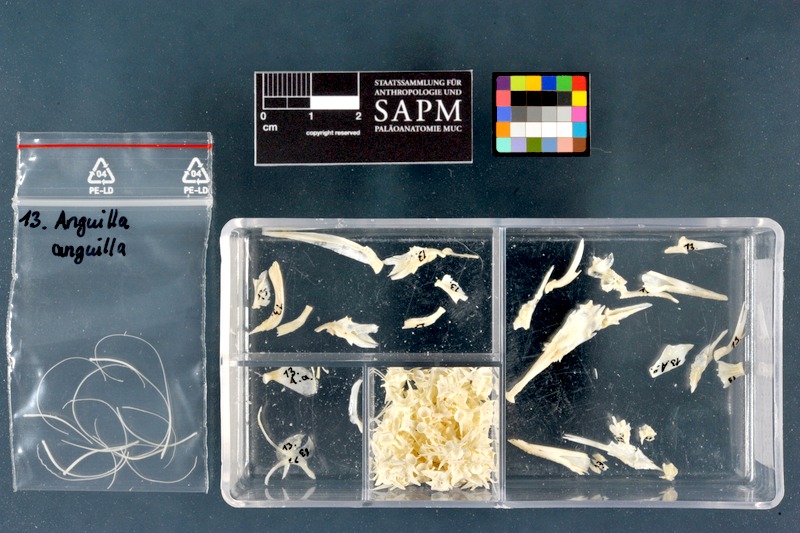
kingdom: Animalia
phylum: Chordata
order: Anguilliformes
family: Anguillidae
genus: Anguilla
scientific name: Anguilla anguilla
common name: European eel
